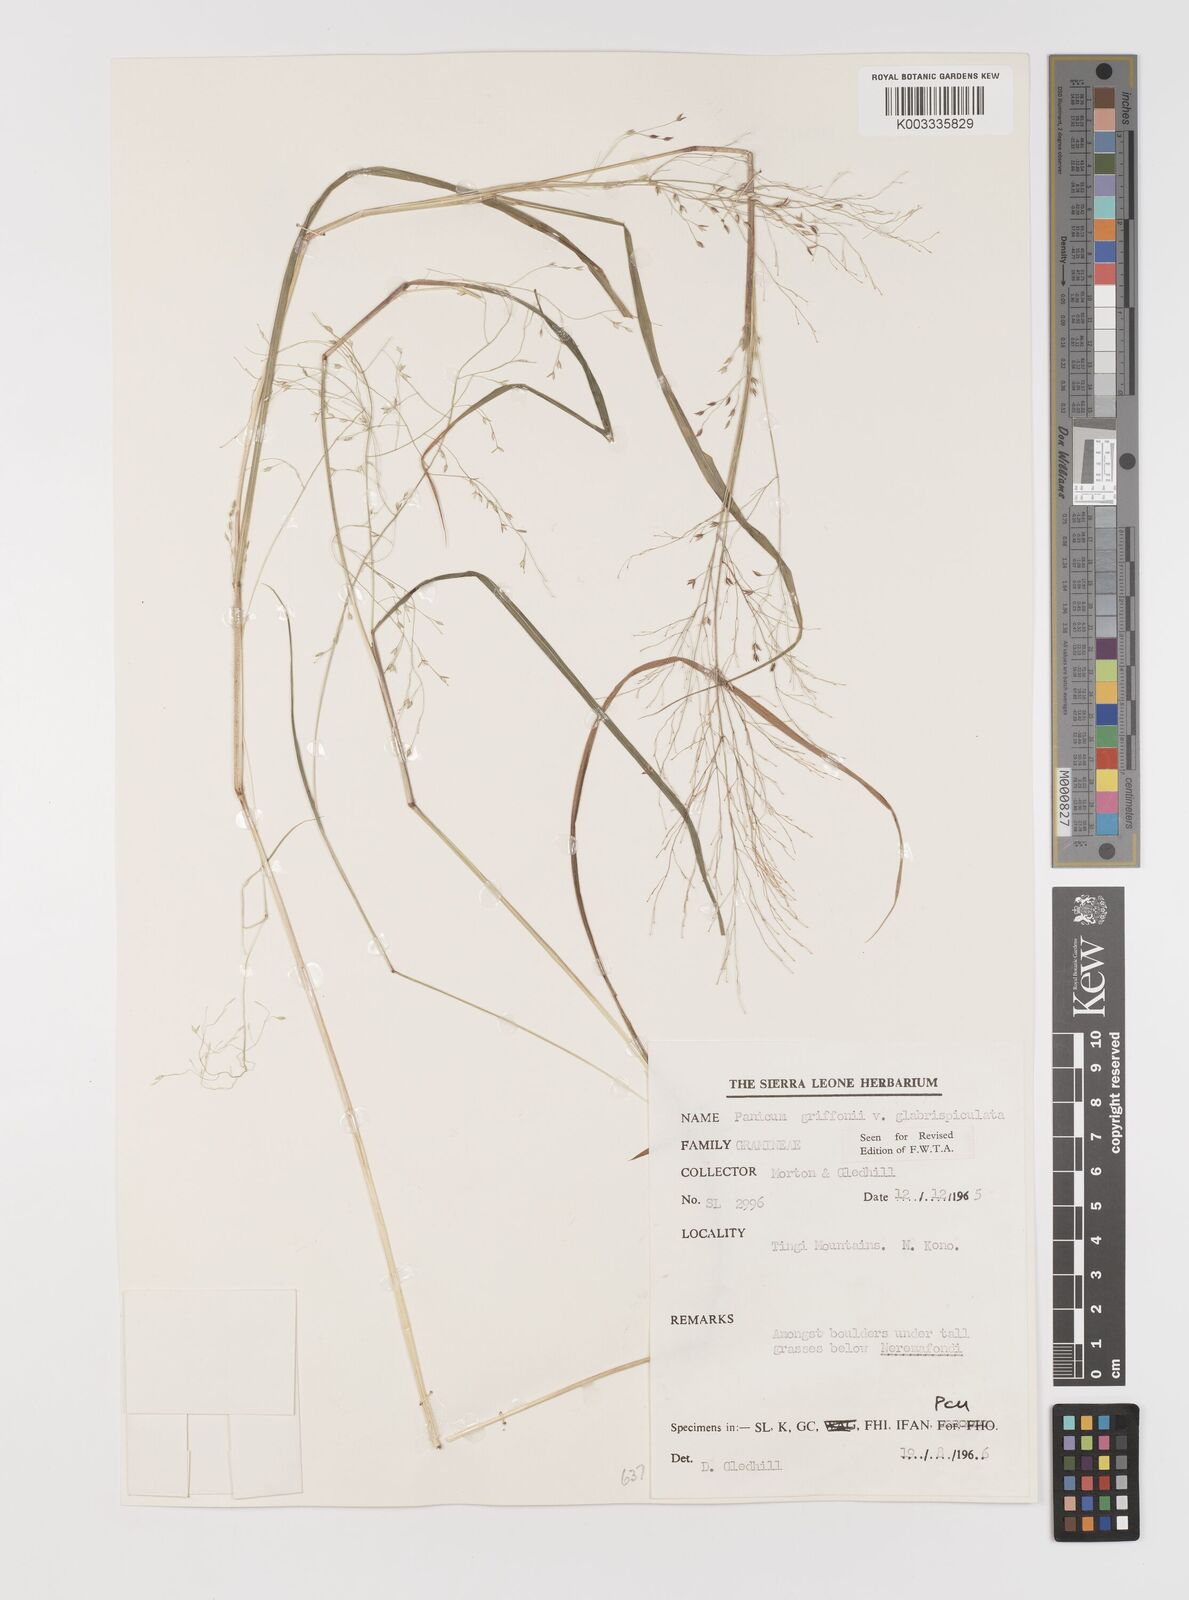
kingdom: Plantae
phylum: Tracheophyta
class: Liliopsida
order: Poales
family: Poaceae
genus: Panicum
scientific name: Panicum griffonii
